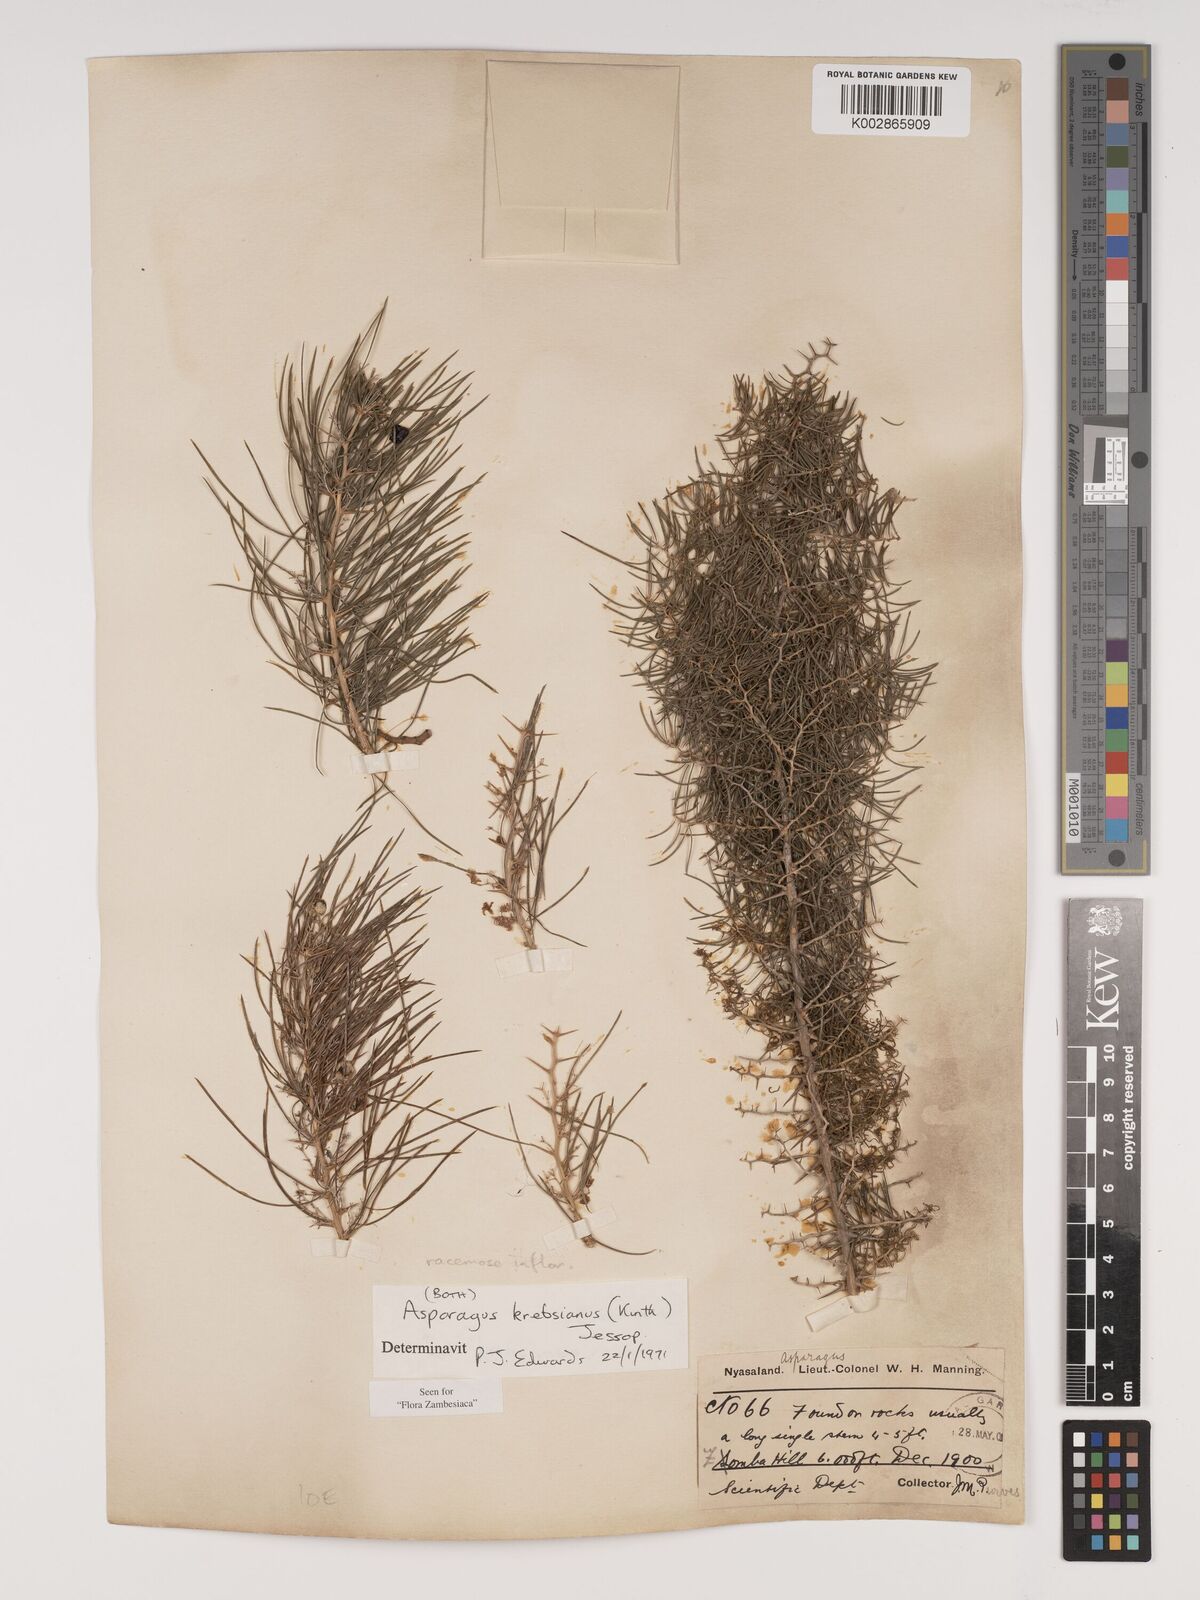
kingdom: Plantae
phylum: Tracheophyta
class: Liliopsida
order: Asparagales
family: Asparagaceae
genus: Asparagus
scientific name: Asparagus krebsianus
